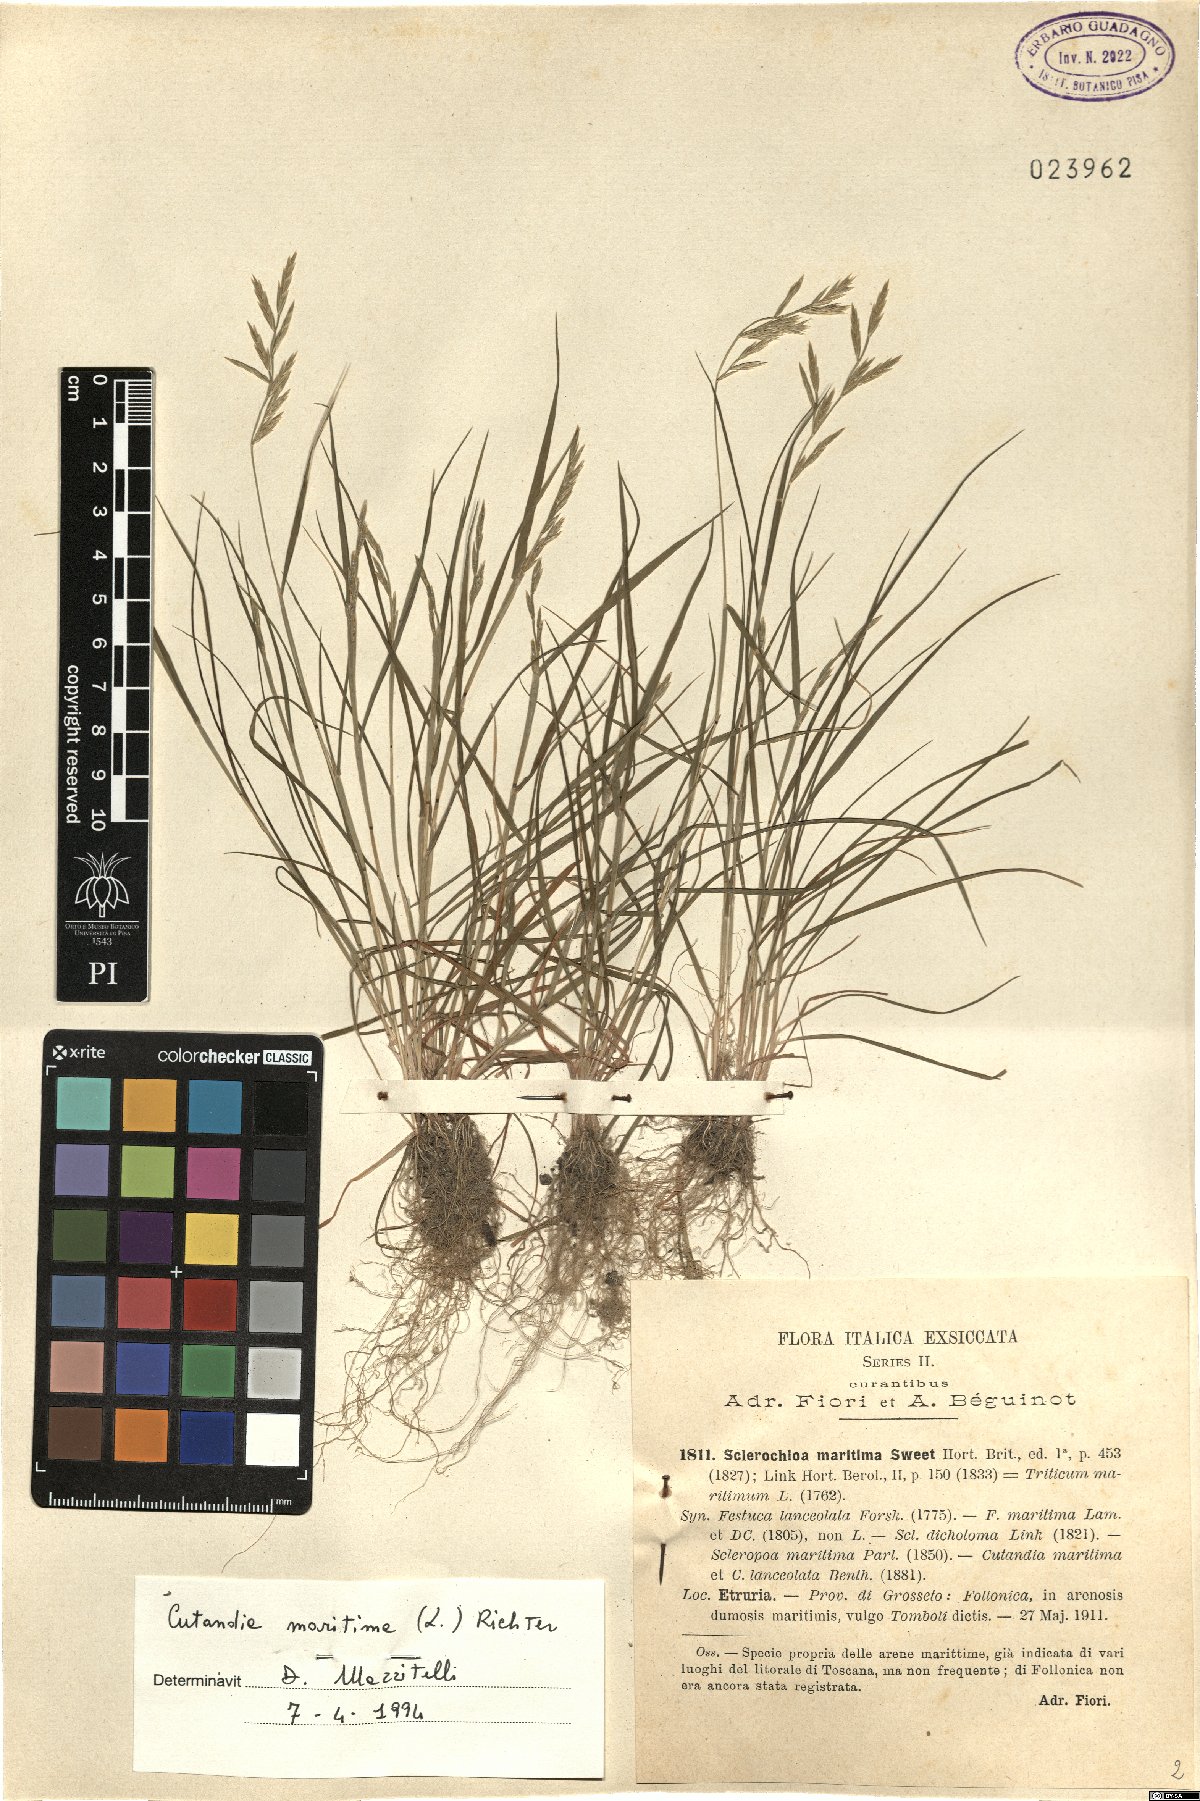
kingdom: Plantae
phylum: Tracheophyta
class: Liliopsida
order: Poales
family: Poaceae
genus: Cutandia
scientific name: Cutandia maritima
